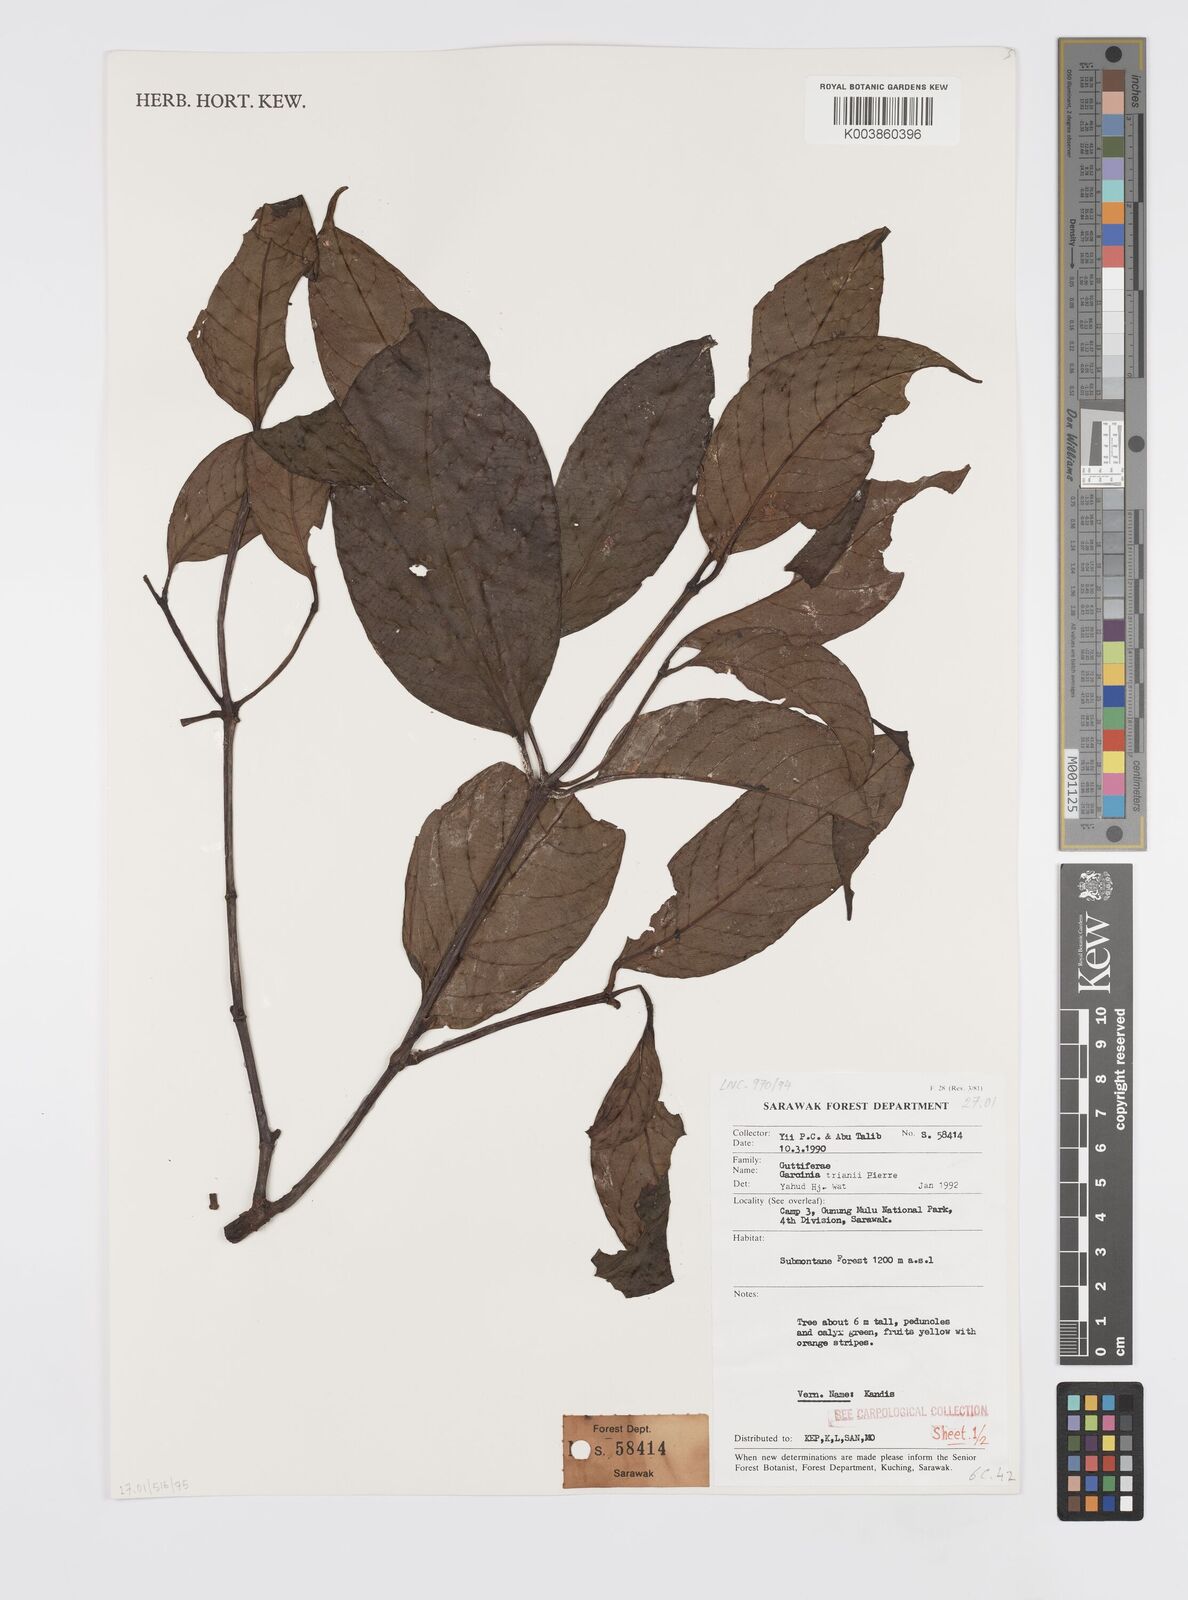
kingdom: Plantae
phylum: Tracheophyta
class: Magnoliopsida
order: Malpighiales
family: Clusiaceae
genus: Garcinia
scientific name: Garcinia trianii
